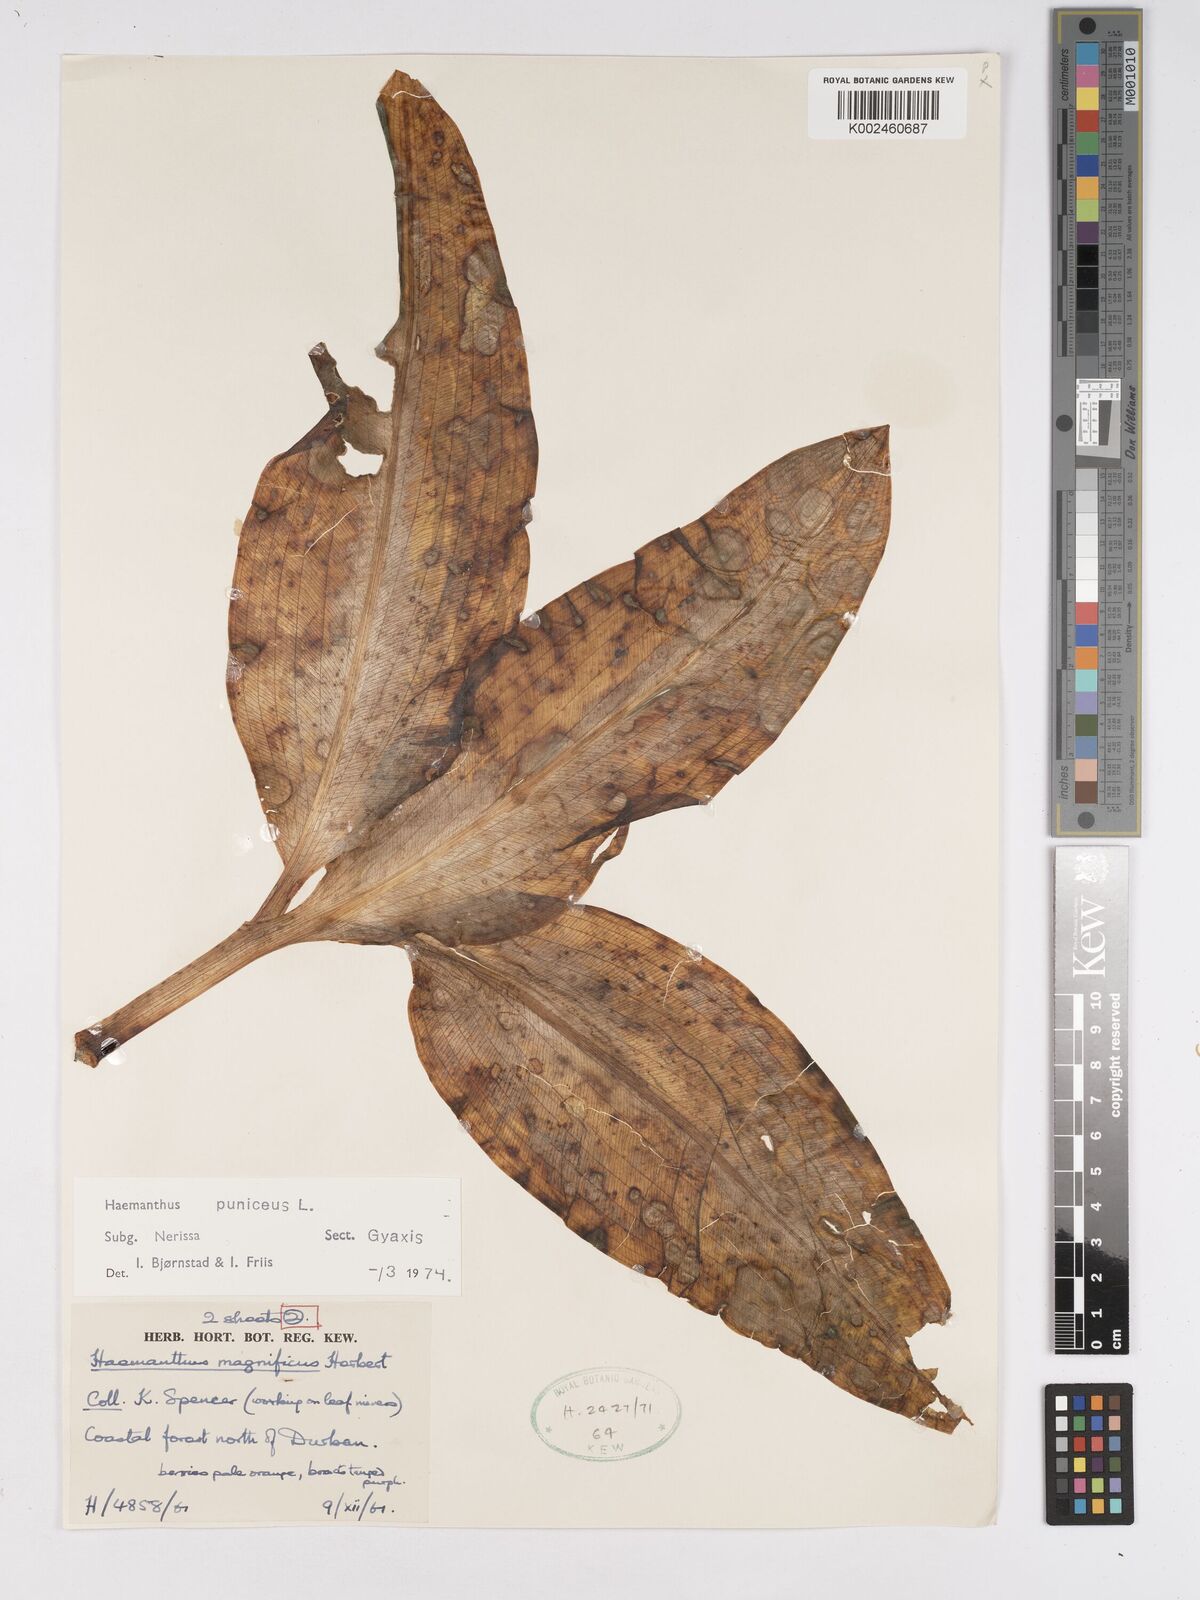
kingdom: Plantae
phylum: Tracheophyta
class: Liliopsida
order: Asparagales
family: Amaryllidaceae
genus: Scadoxus
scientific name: Scadoxus puniceus
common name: Royal-paintbrush
